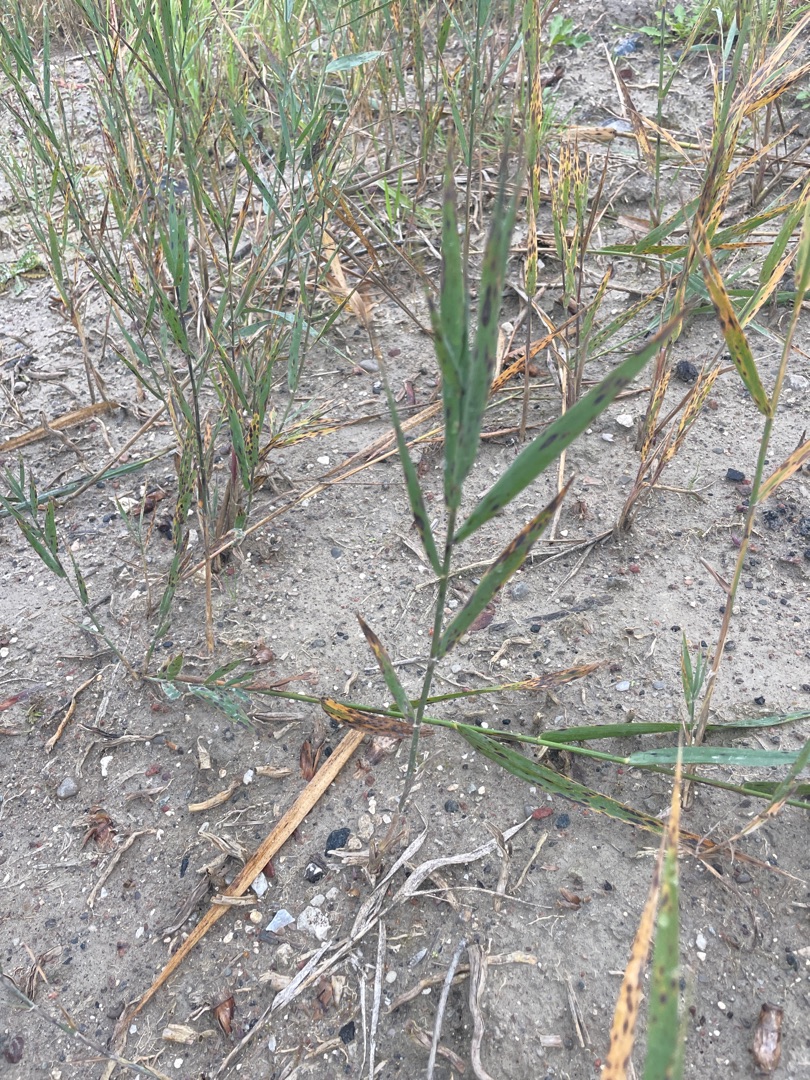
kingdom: Plantae
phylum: Tracheophyta
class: Liliopsida
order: Poales
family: Poaceae
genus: Phragmites
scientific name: Phragmites australis
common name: Tagrør
